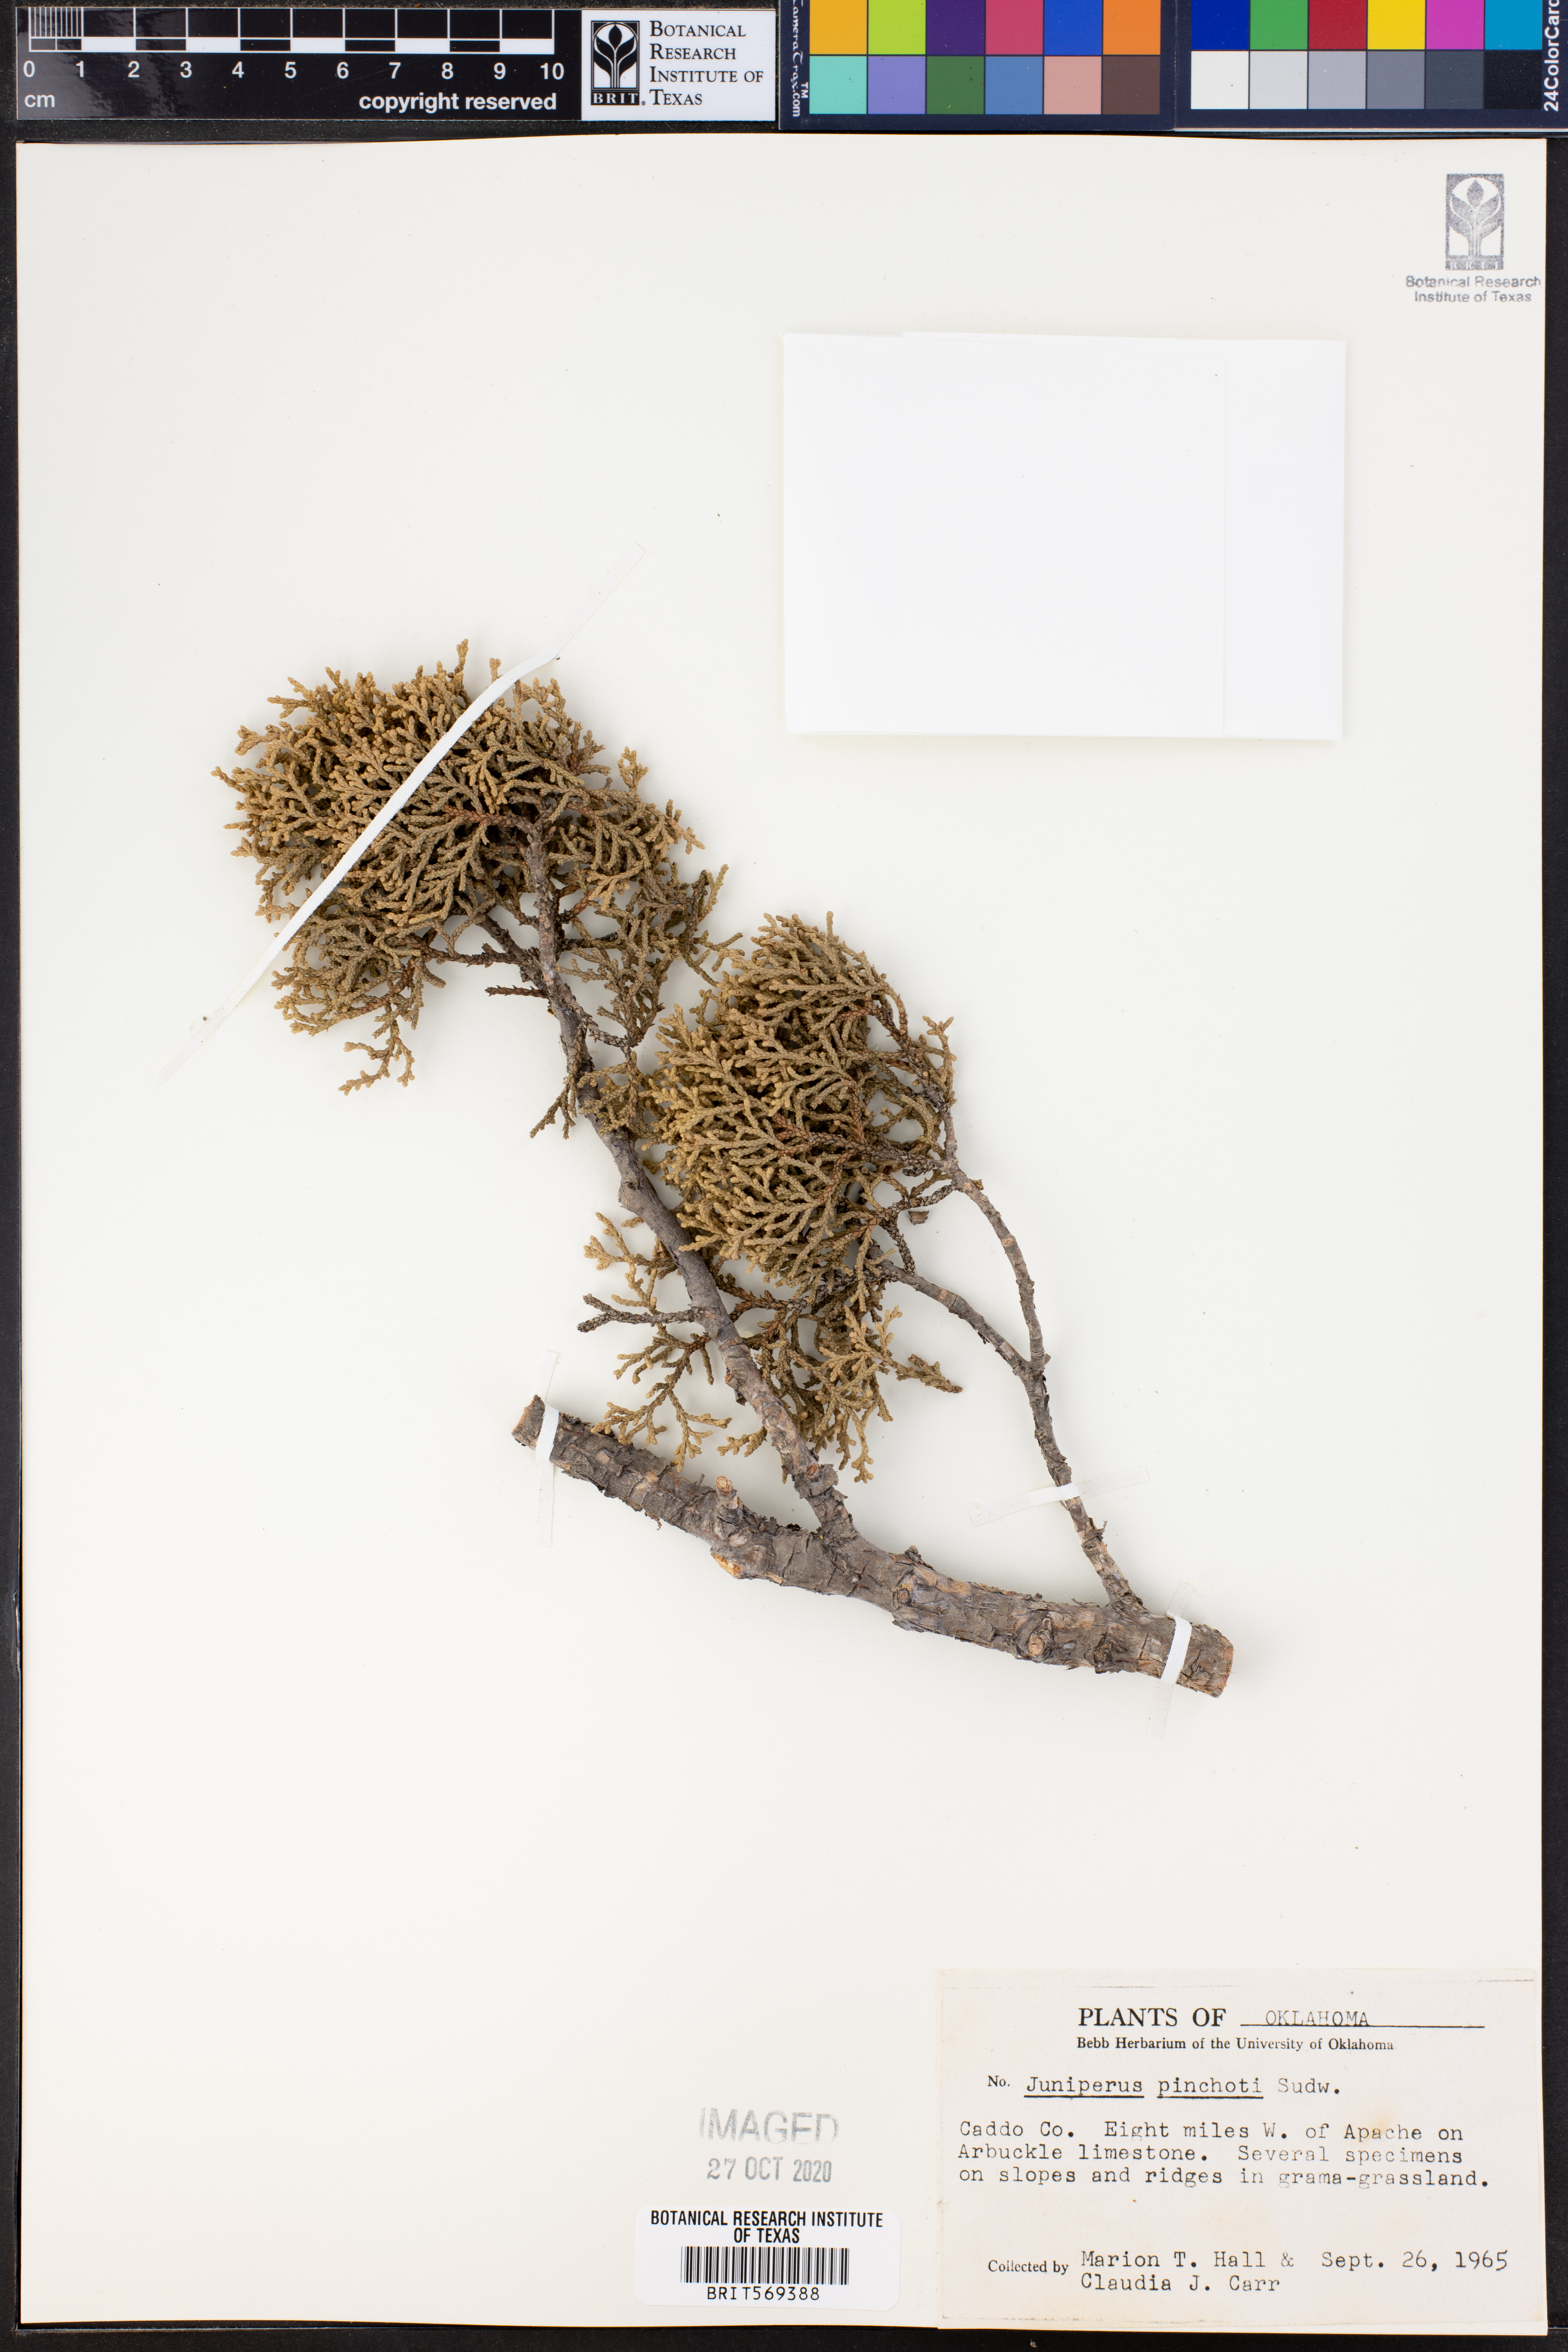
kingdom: Plantae
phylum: Tracheophyta
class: Pinopsida
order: Pinales
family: Cupressaceae
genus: Juniperus
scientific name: Juniperus pinchotii
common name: Pinchot juniper
